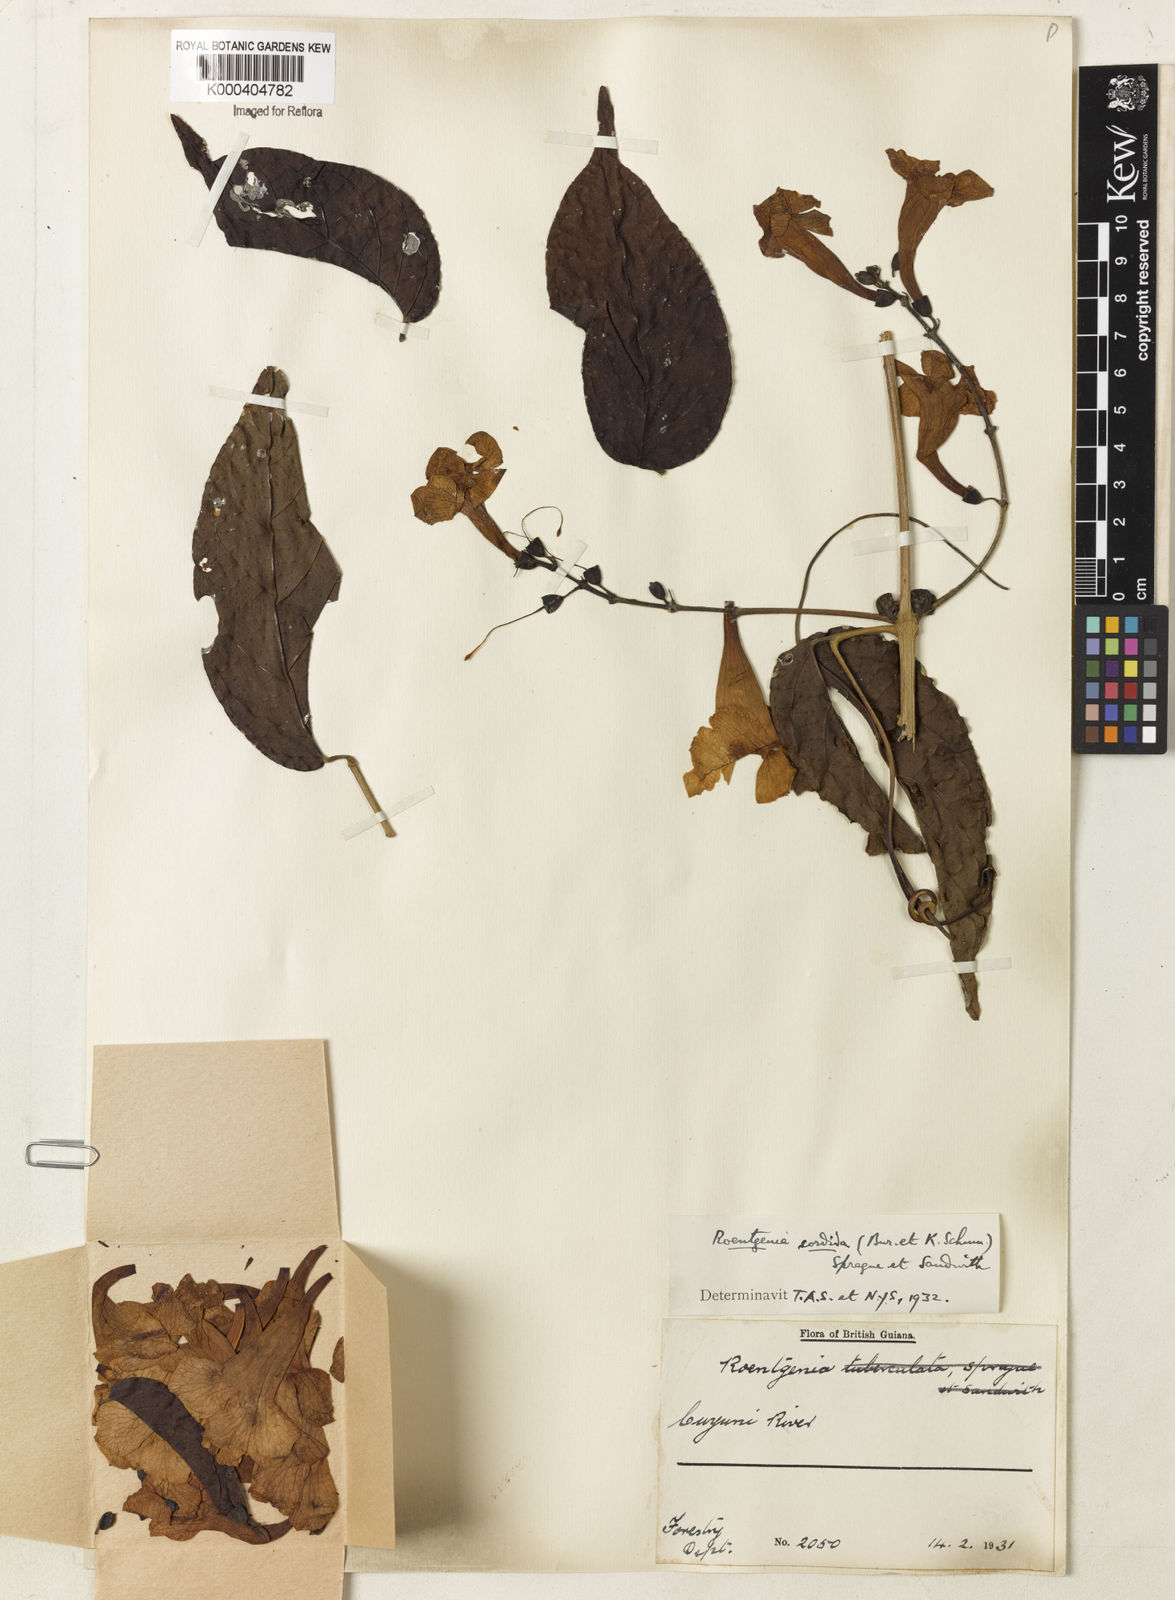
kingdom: Plantae
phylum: Tracheophyta
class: Magnoliopsida
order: Lamiales
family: Bignoniaceae
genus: Bignonia
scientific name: Bignonia sordida
